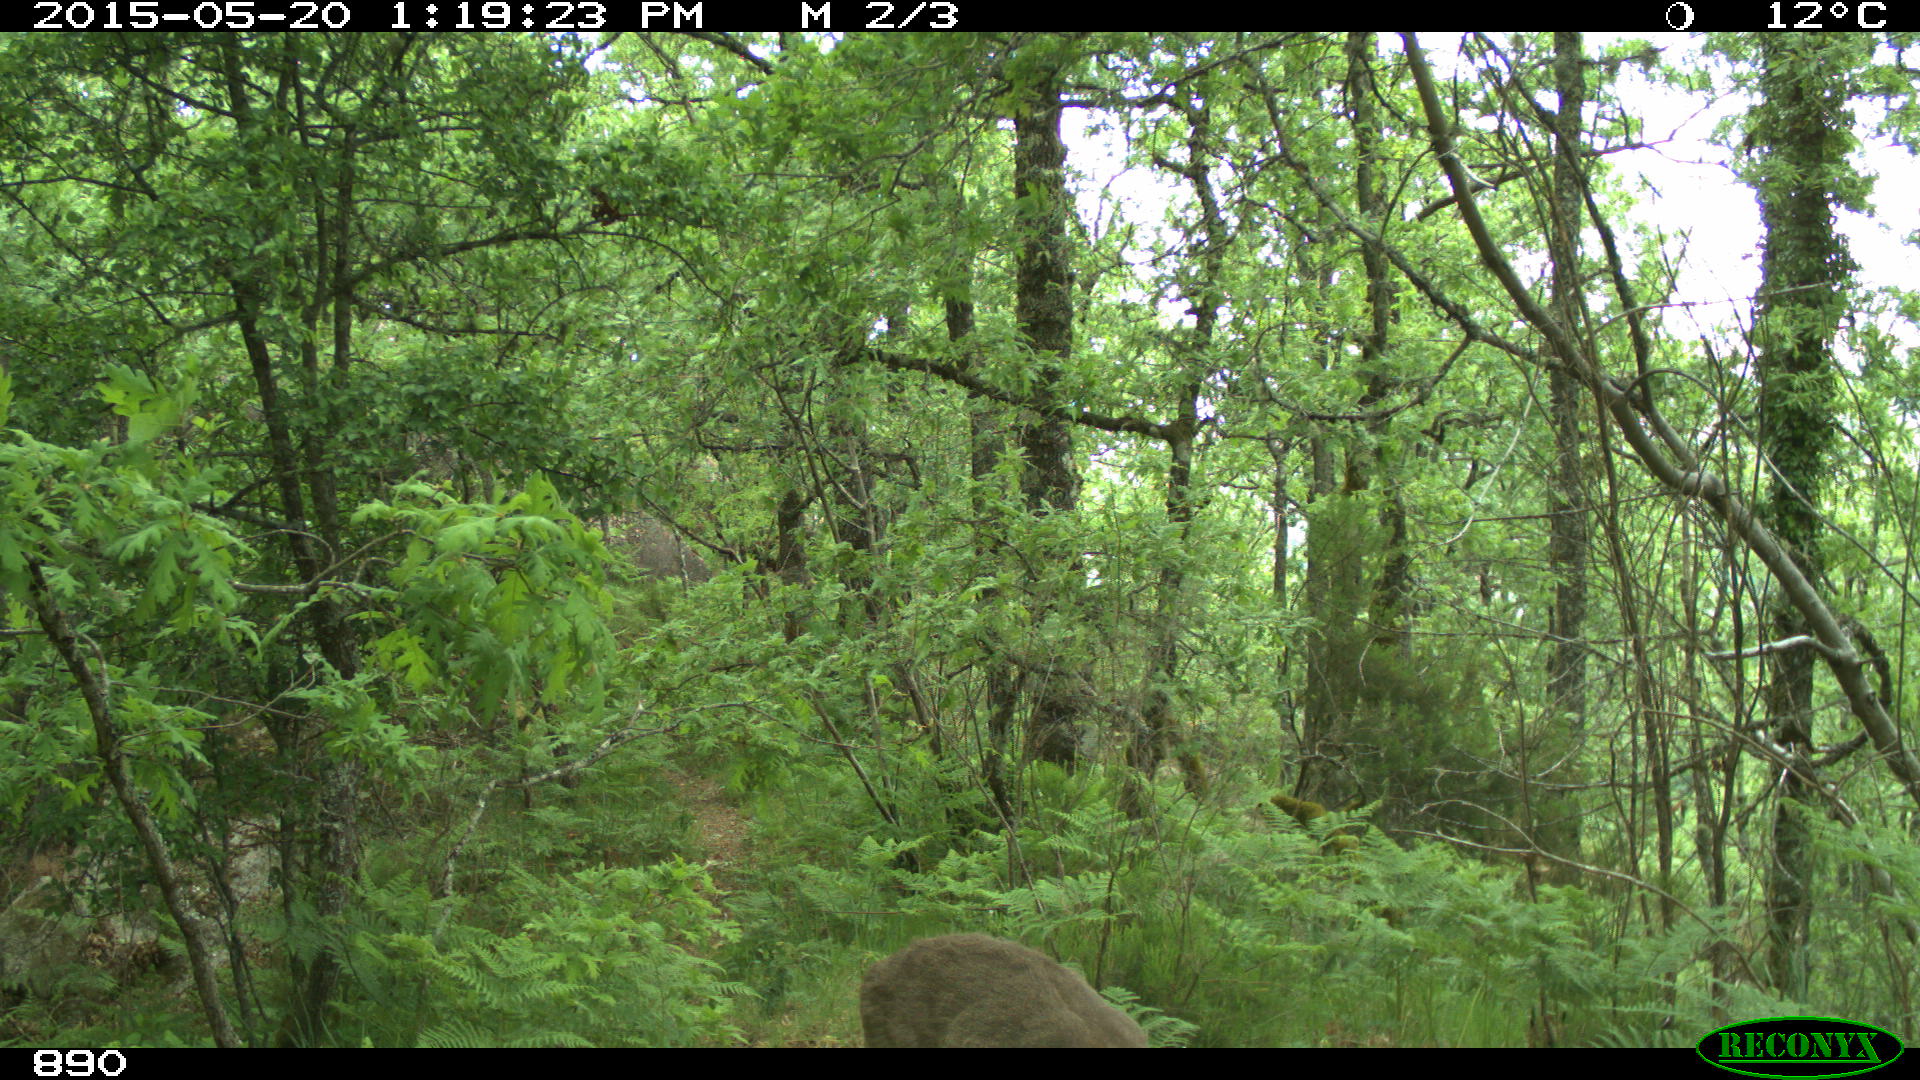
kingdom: Animalia
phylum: Chordata
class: Mammalia
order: Artiodactyla
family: Cervidae
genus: Capreolus
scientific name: Capreolus capreolus
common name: Western roe deer
